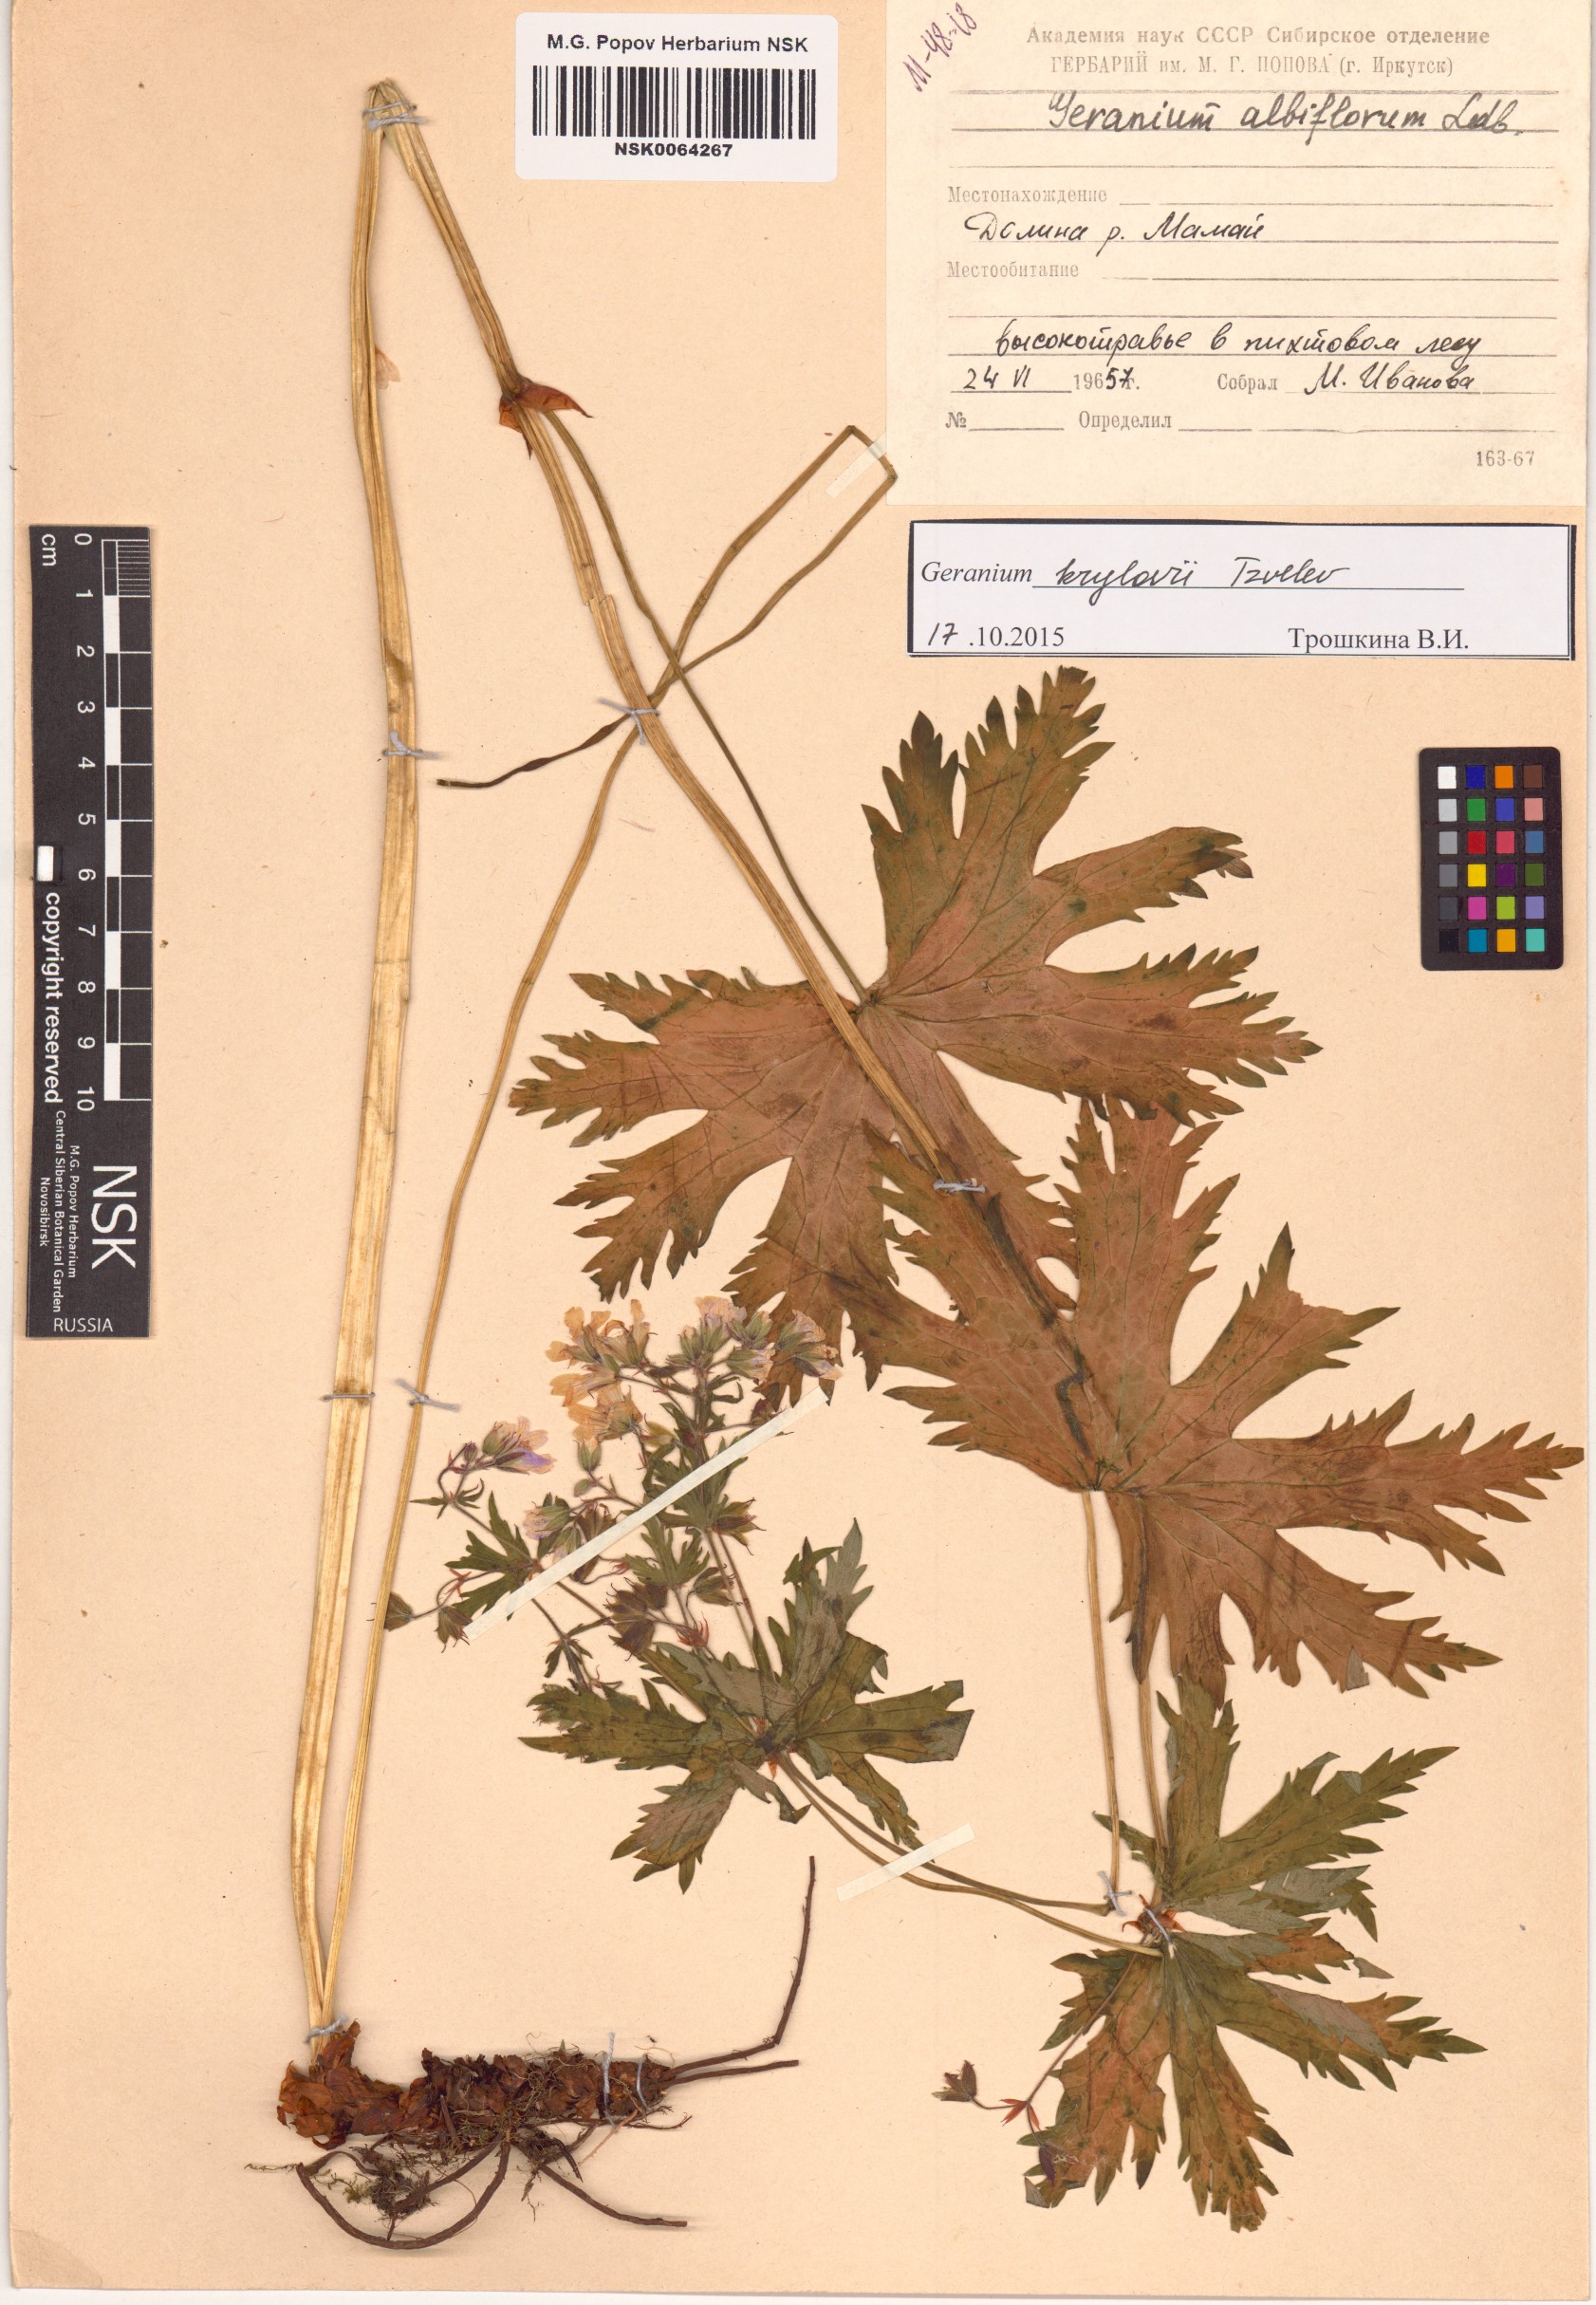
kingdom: Plantae
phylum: Tracheophyta
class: Magnoliopsida
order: Geraniales
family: Geraniaceae
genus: Geranium
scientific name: Geranium sylvaticum
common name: Wood crane's-bill
